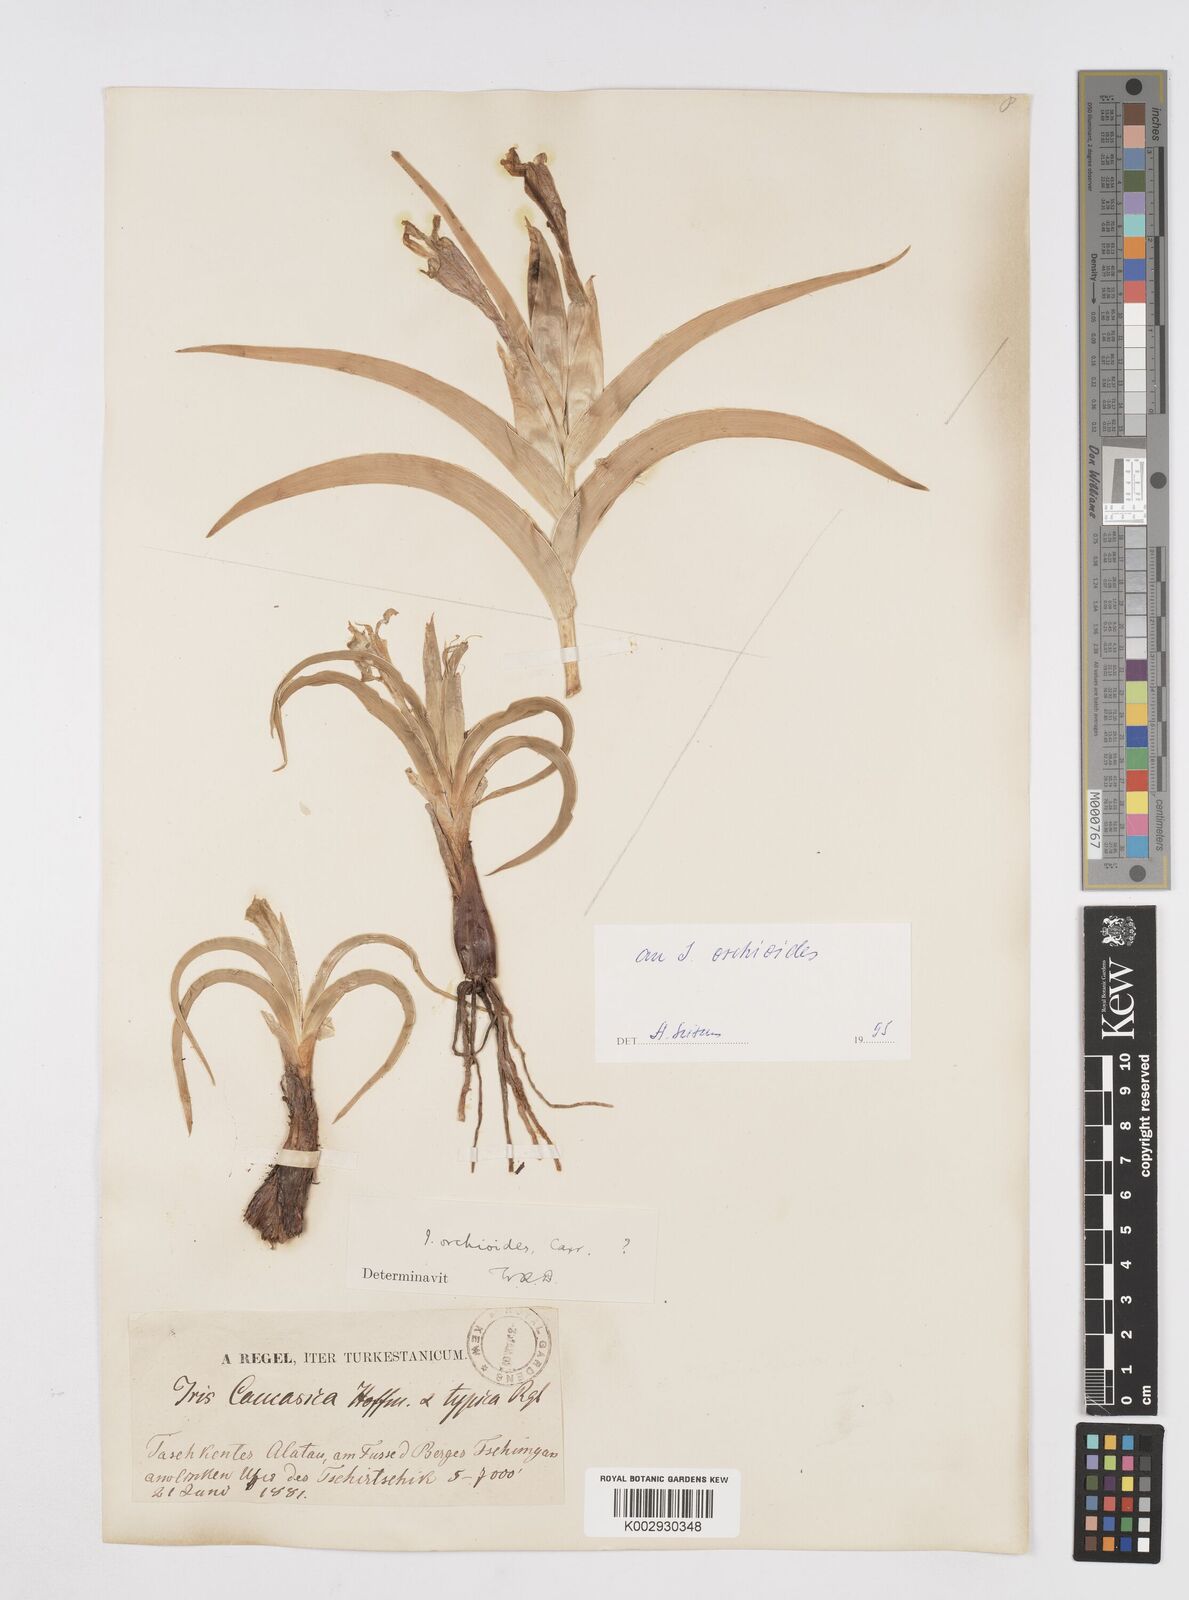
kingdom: Plantae
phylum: Tracheophyta
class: Liliopsida
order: Asparagales
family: Iridaceae
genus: Iris
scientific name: Iris orchioides
